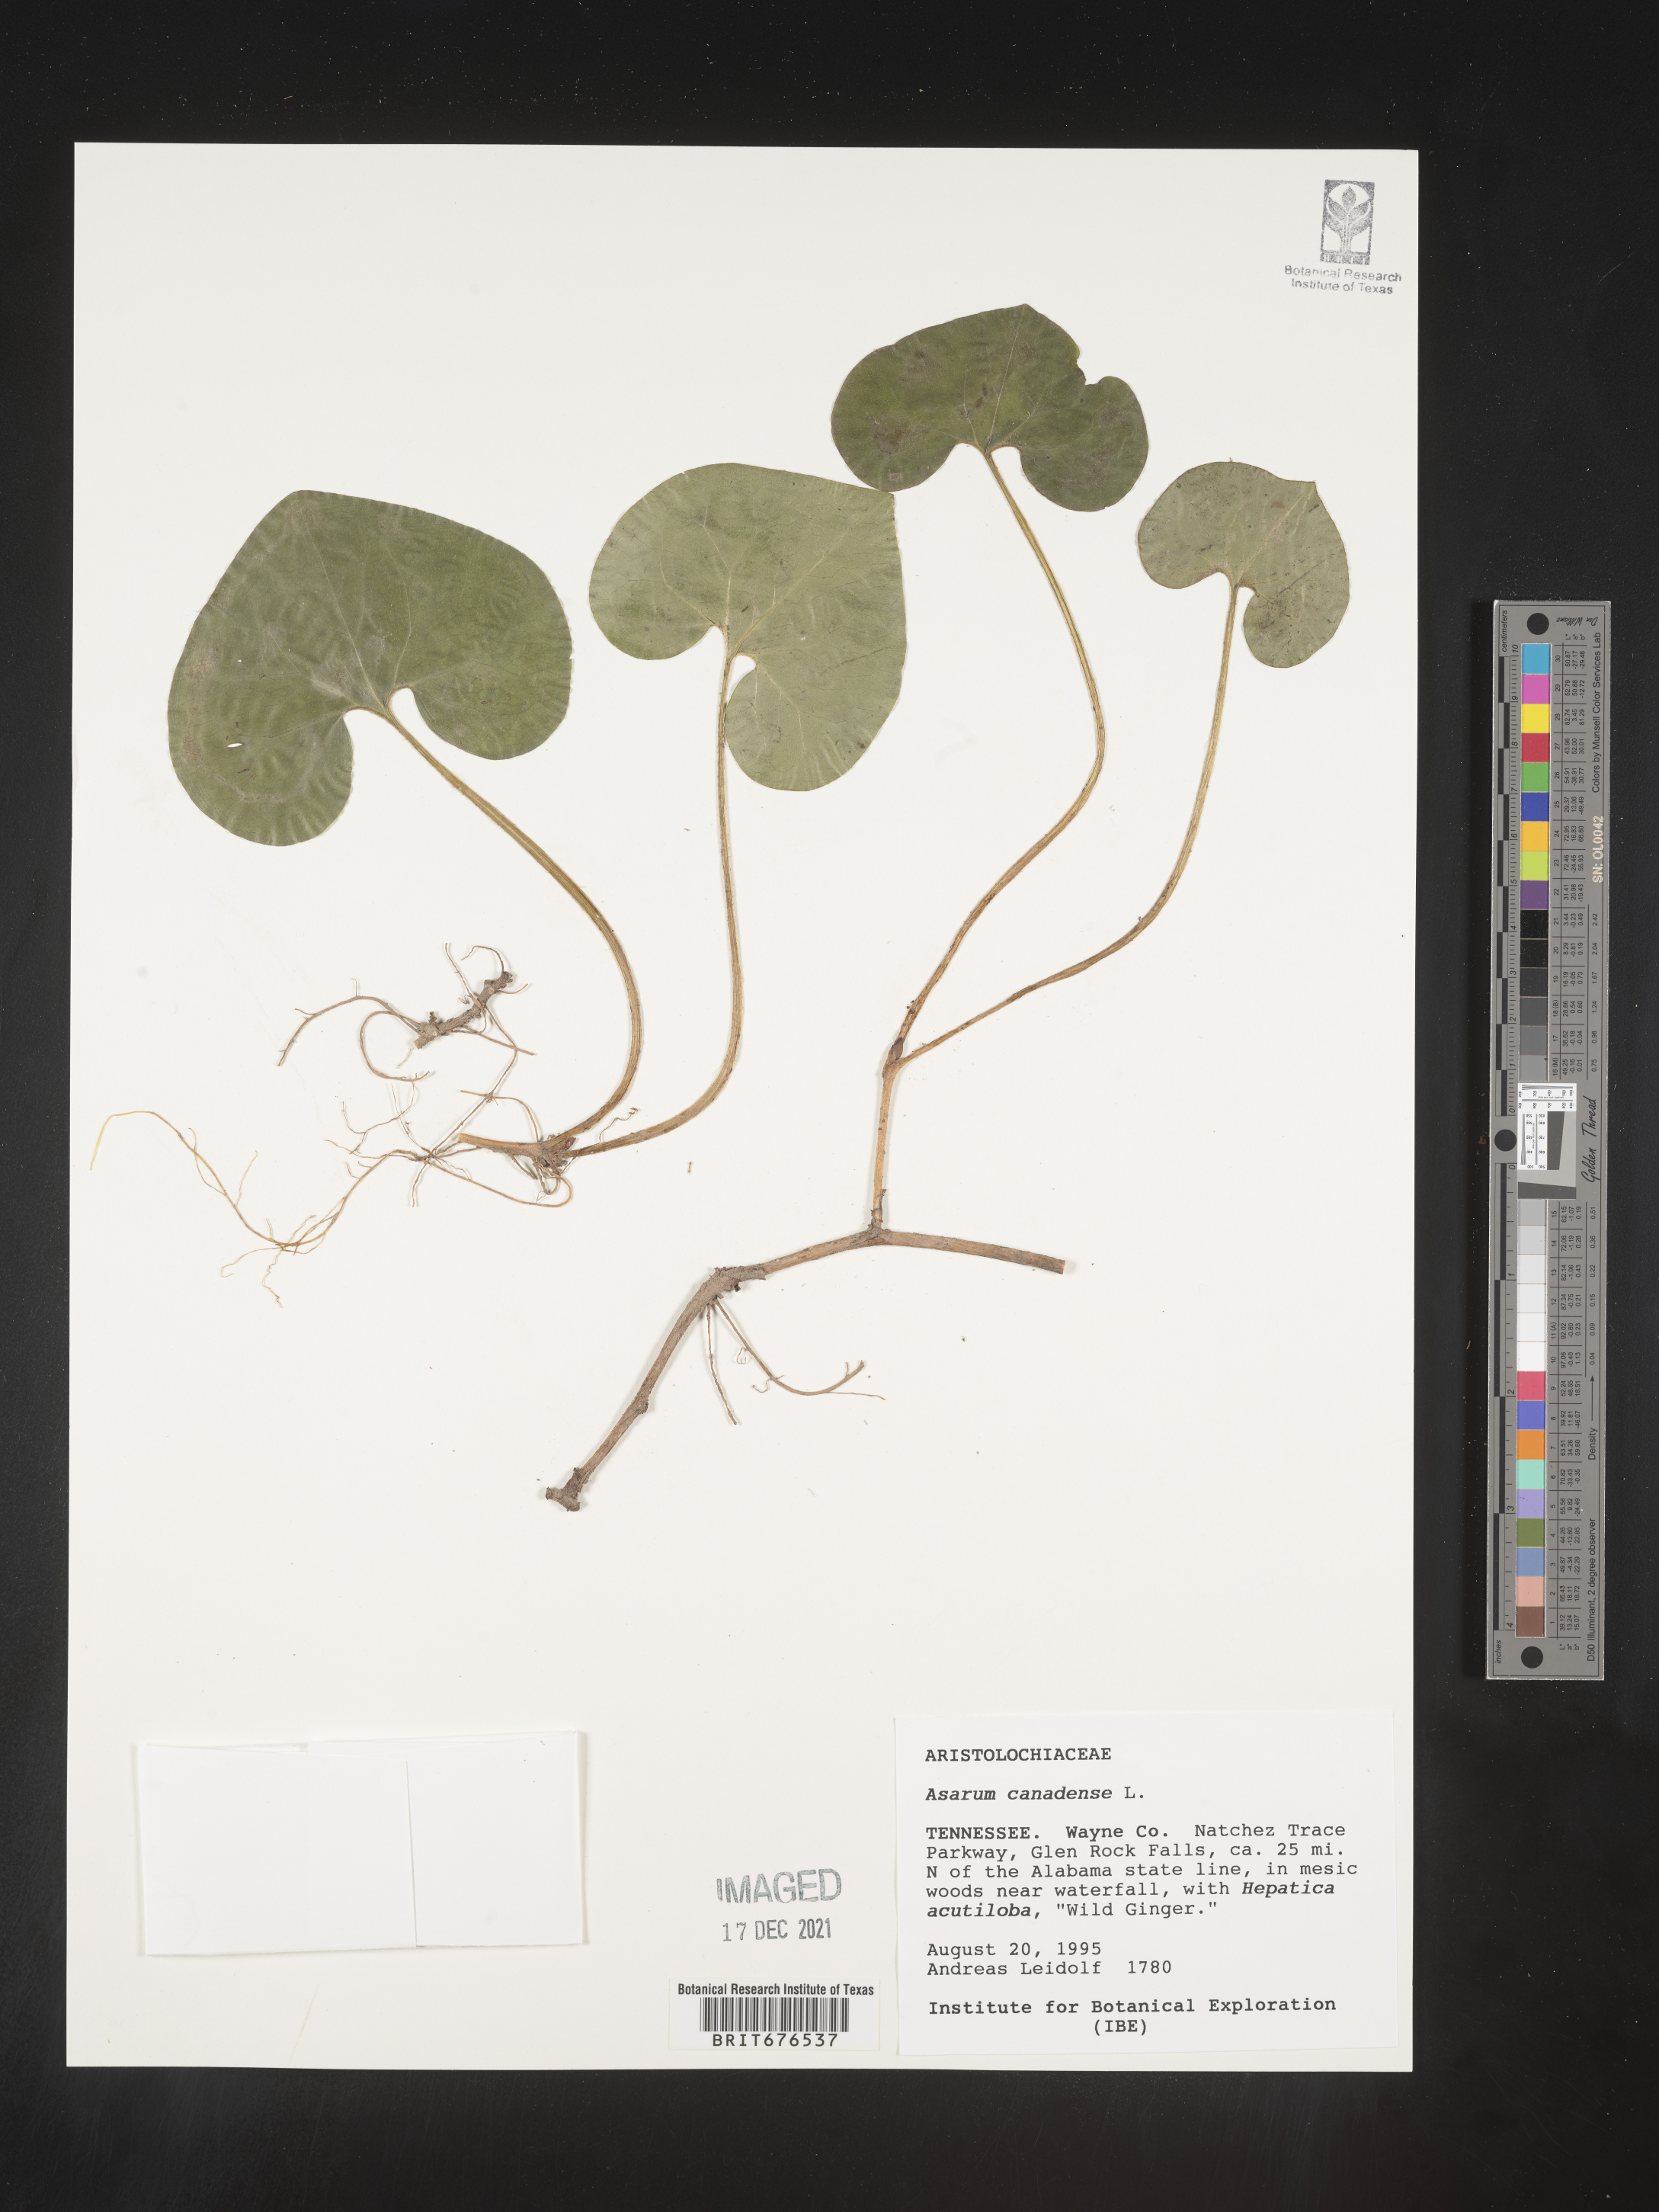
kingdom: Plantae
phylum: Tracheophyta
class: Magnoliopsida
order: Piperales
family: Aristolochiaceae
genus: Asarum
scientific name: Asarum canadense
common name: Wild ginger
